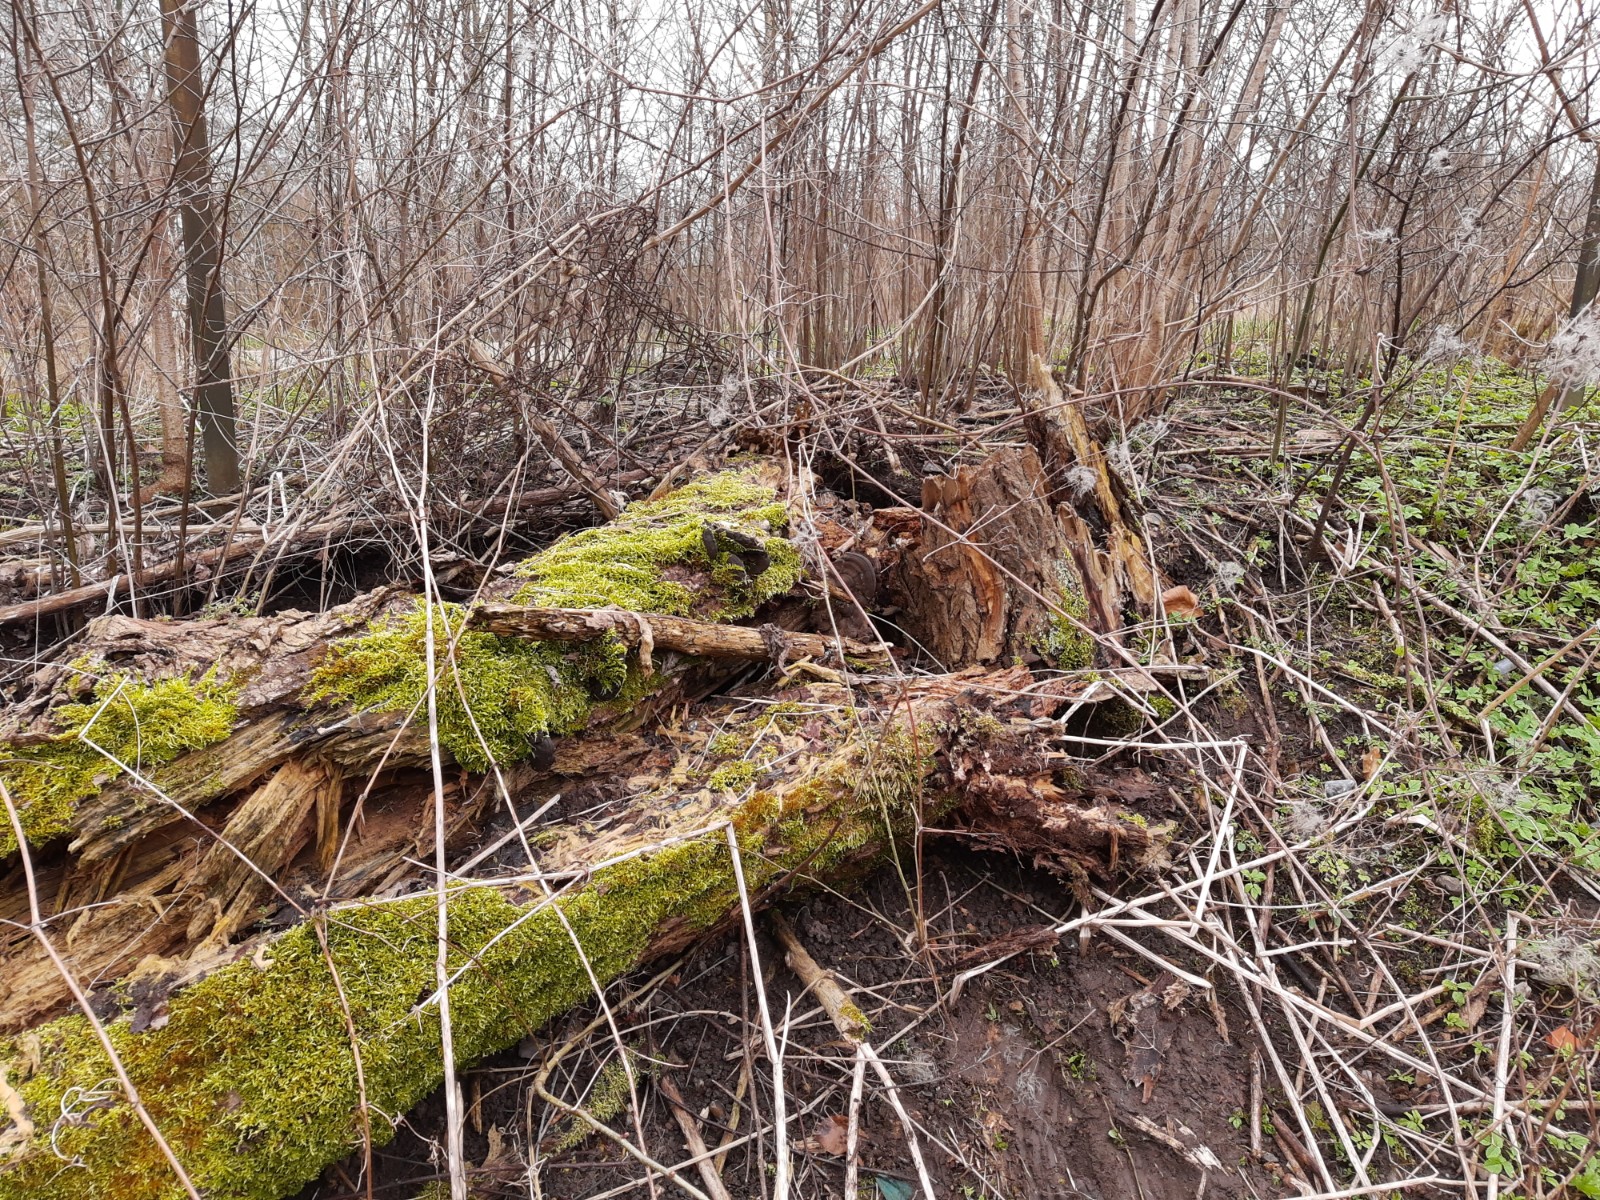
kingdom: Protozoa
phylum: Mycetozoa
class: Myxomycetes
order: Trichiales
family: Trichiaceae
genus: Trichia
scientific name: Trichia
